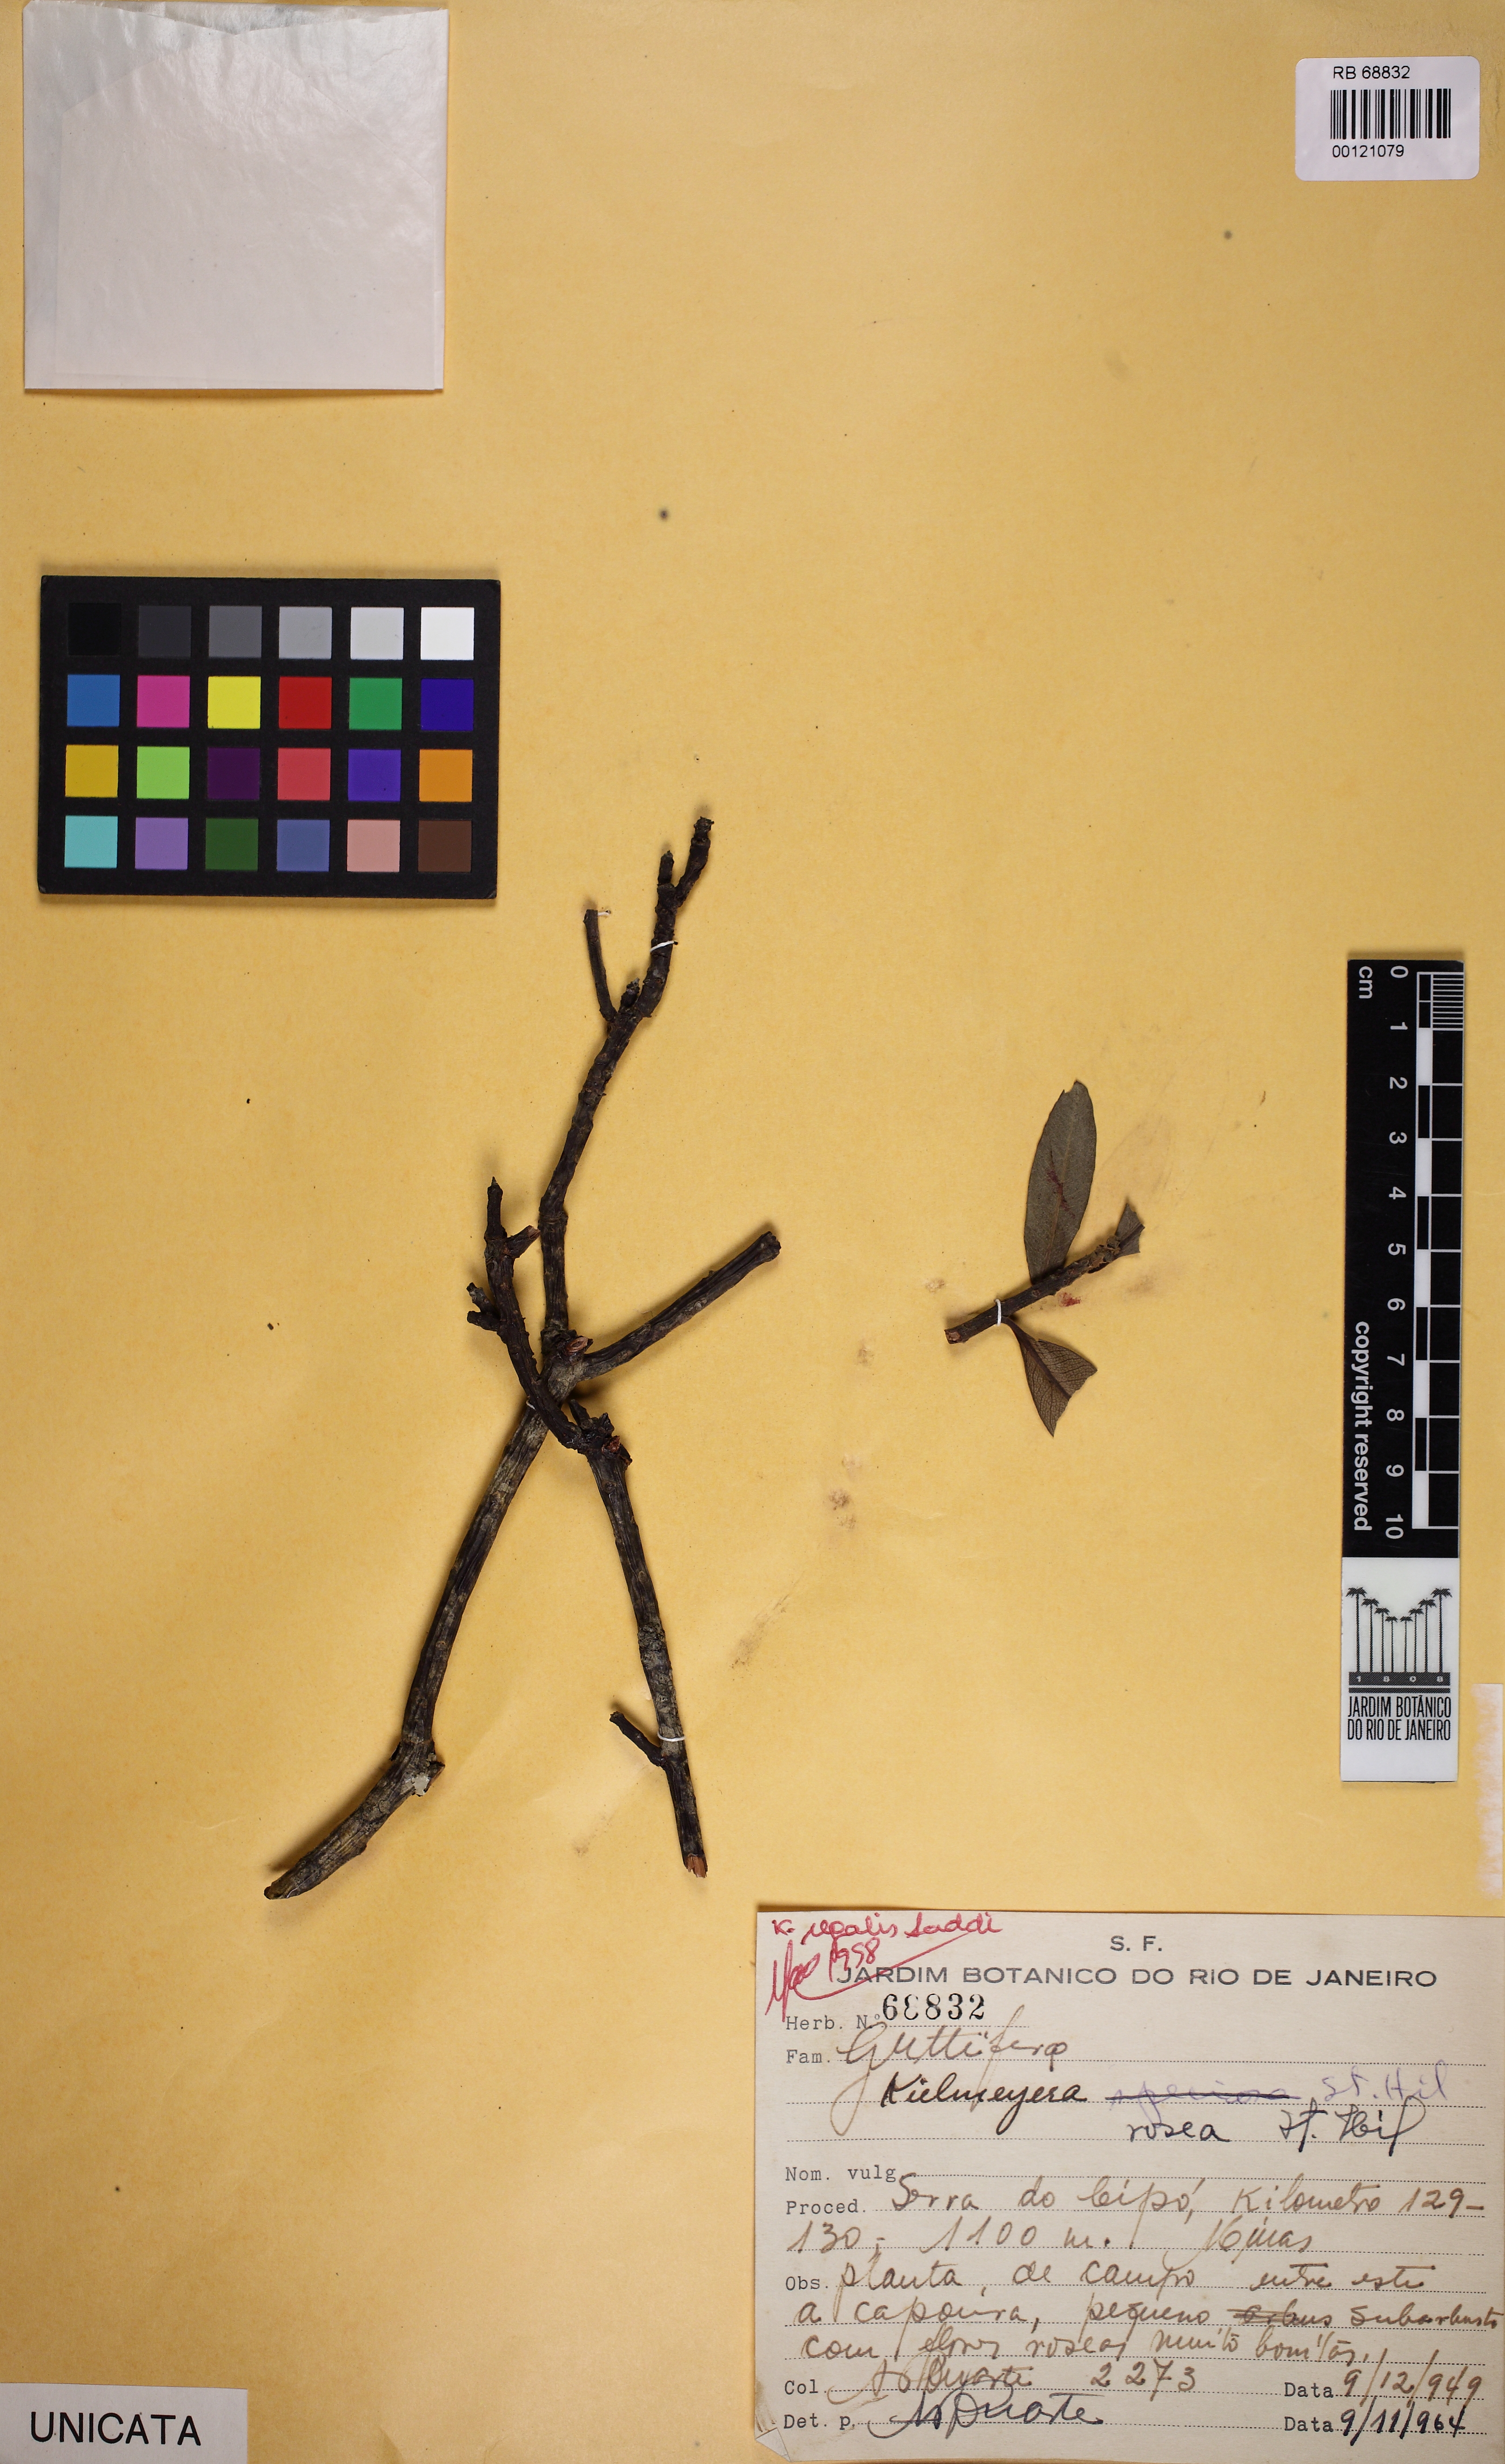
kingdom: Plantae
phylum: Tracheophyta
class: Magnoliopsida
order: Malpighiales
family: Calophyllaceae
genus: Kielmeyera
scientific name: Kielmeyera
